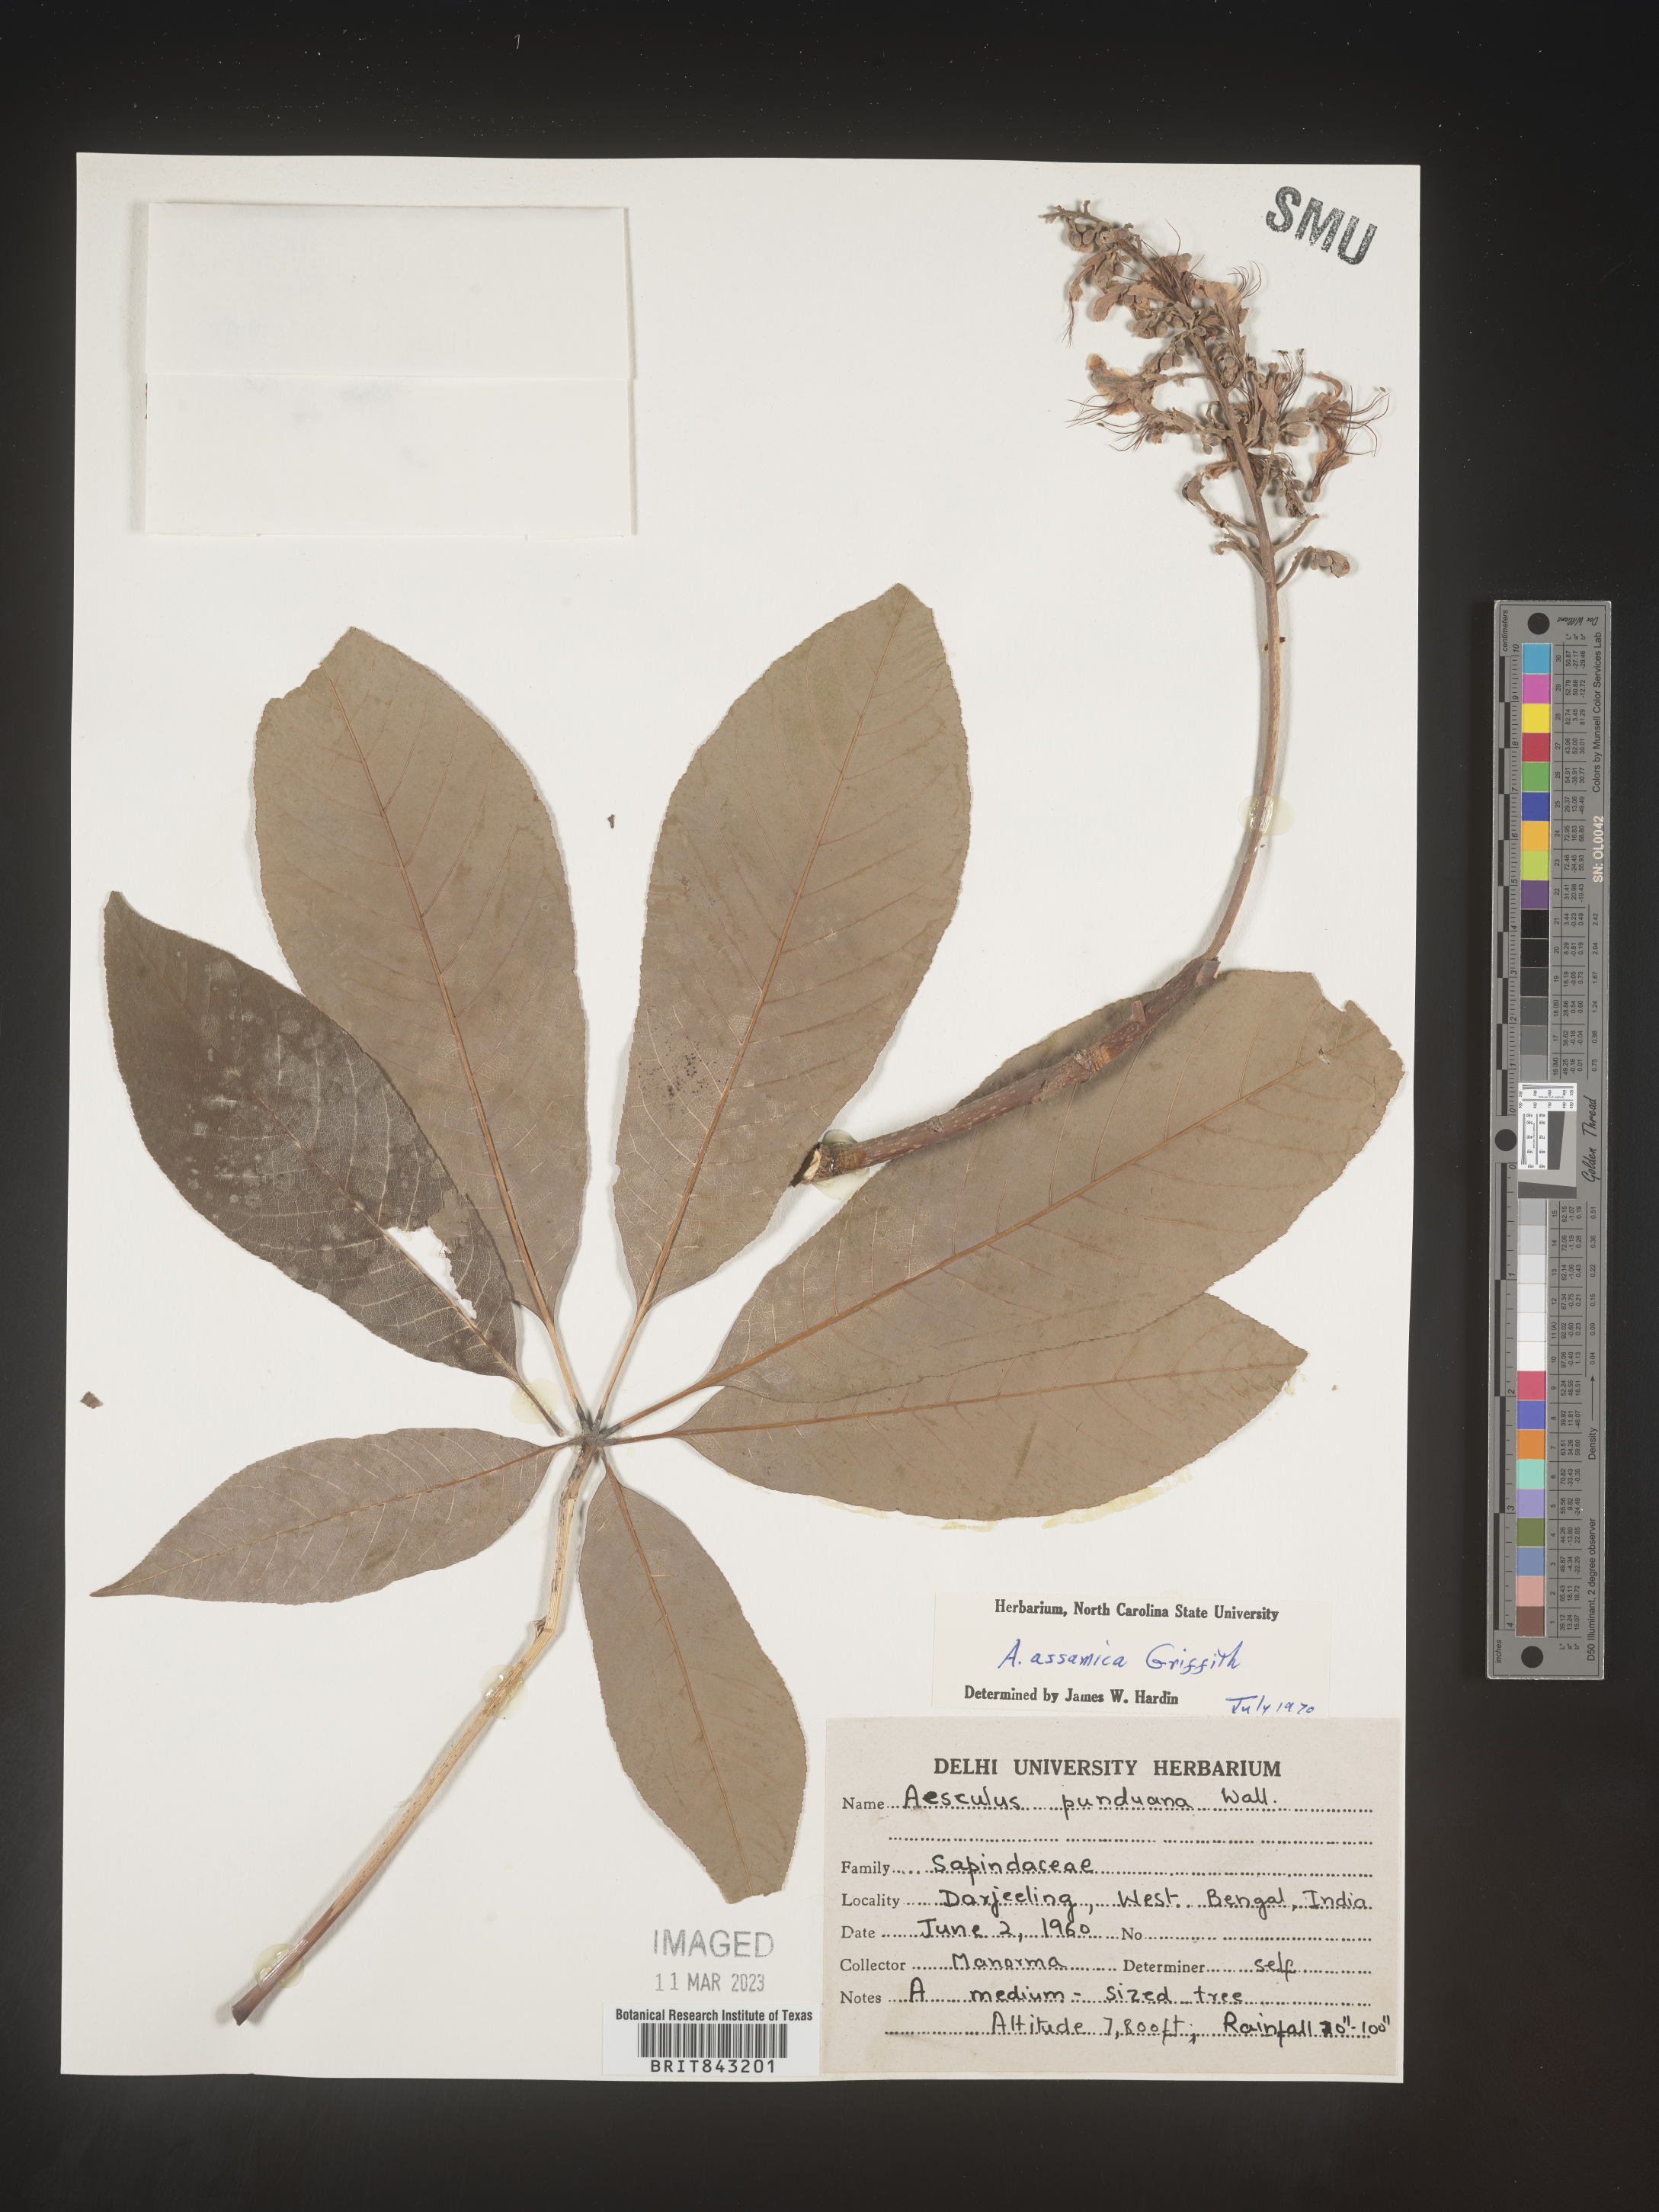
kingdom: Plantae
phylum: Tracheophyta
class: Magnoliopsida
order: Sapindales
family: Sapindaceae
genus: Aesculus
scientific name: Aesculus assamica
